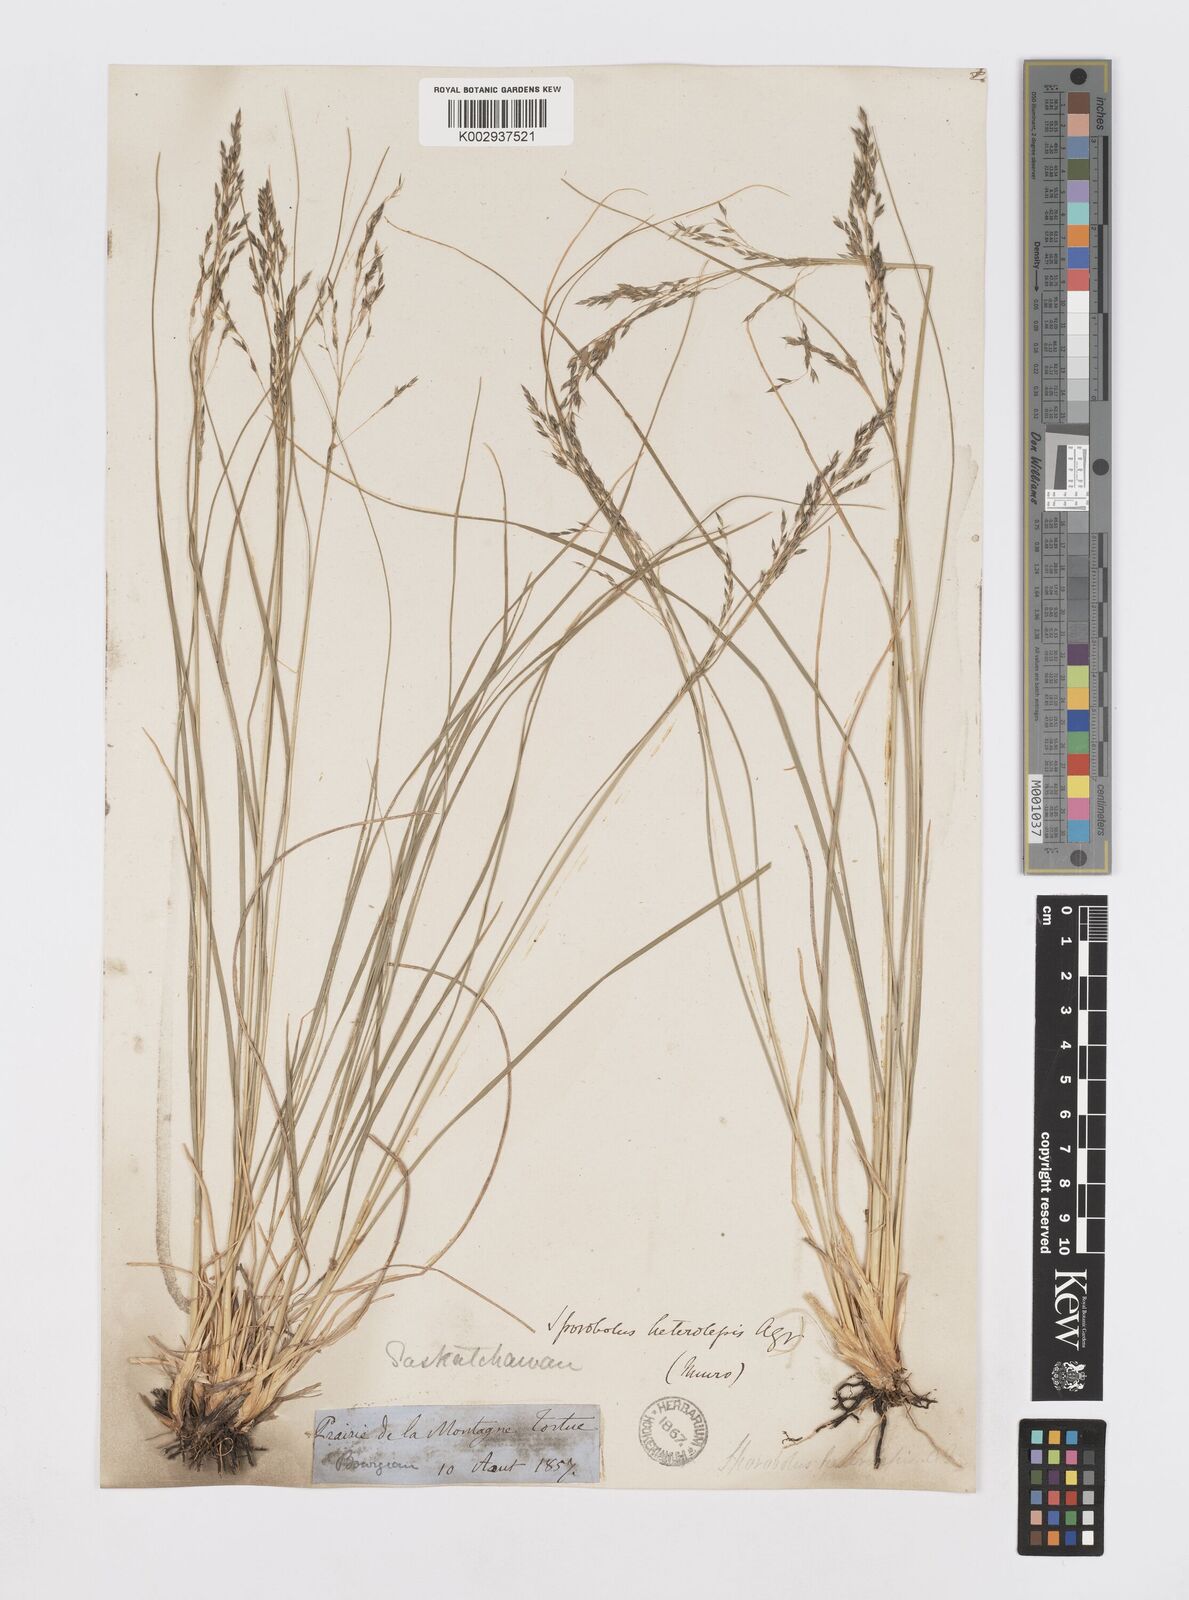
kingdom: Plantae
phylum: Tracheophyta
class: Liliopsida
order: Poales
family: Poaceae
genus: Sporobolus
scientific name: Sporobolus heterolepis
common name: Prairie dropseed
